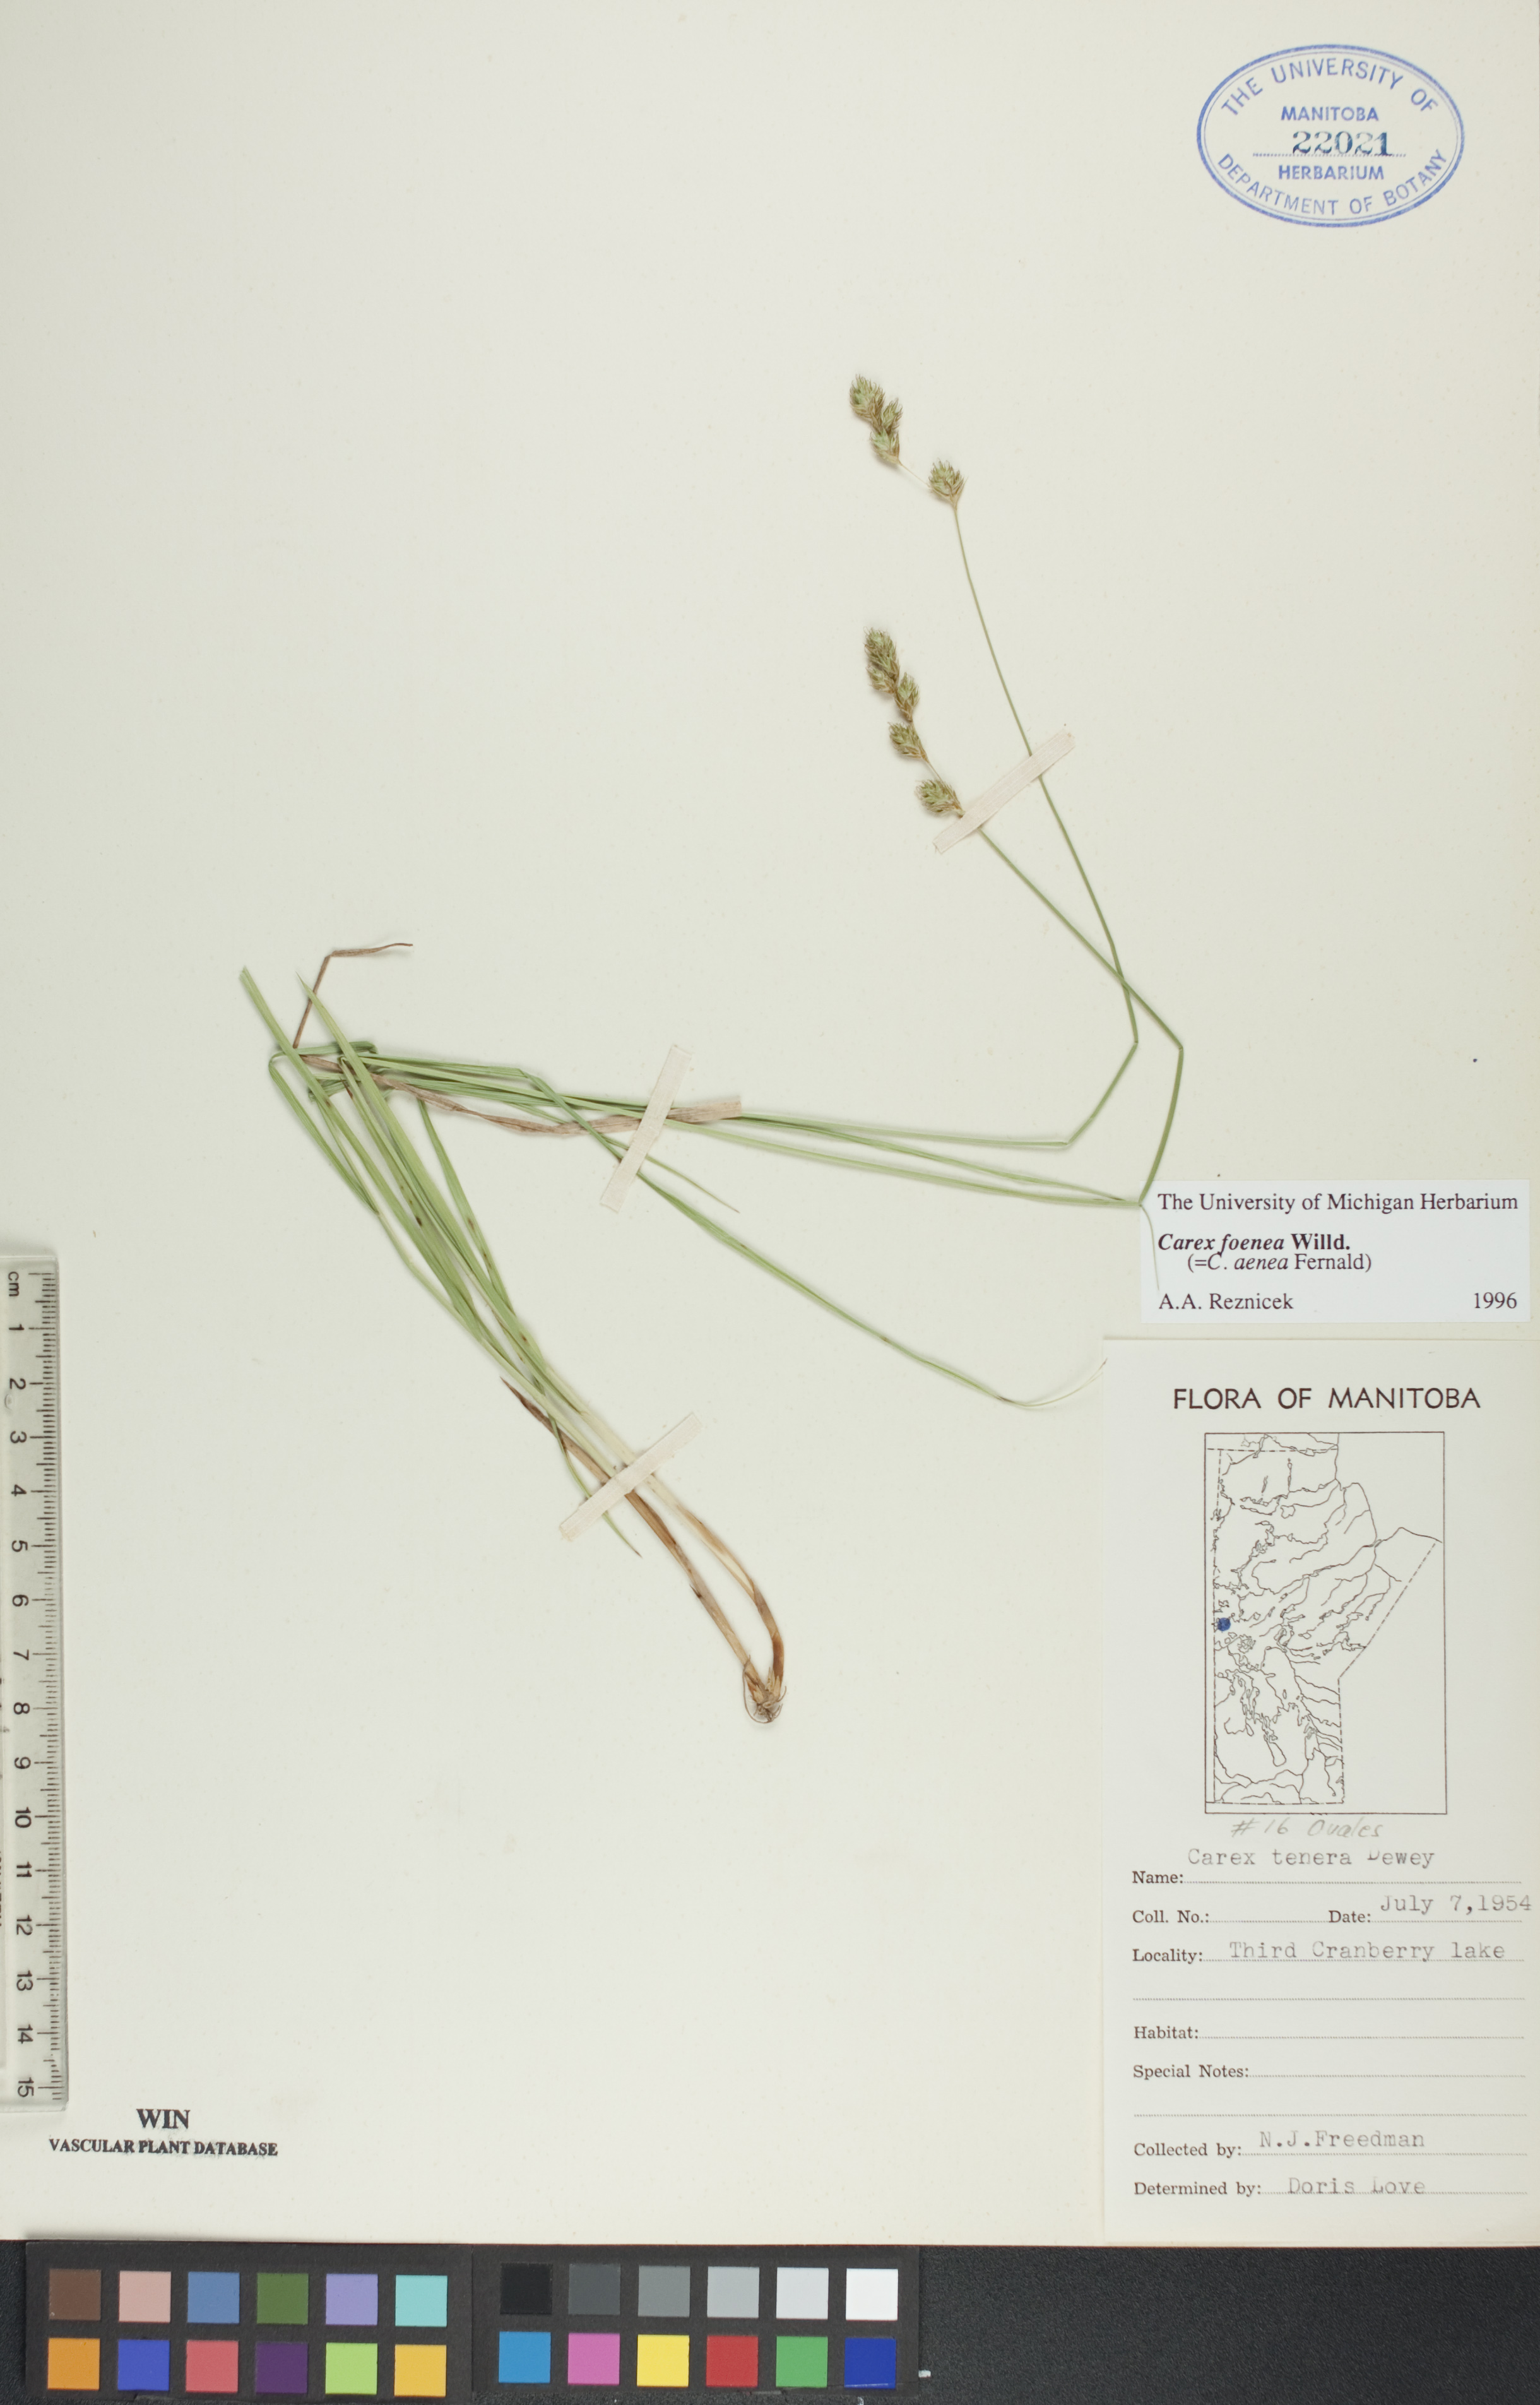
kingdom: Plantae
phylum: Tracheophyta
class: Liliopsida
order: Poales
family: Cyperaceae
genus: Carex
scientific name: Carex foenea
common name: Bronze sedge
